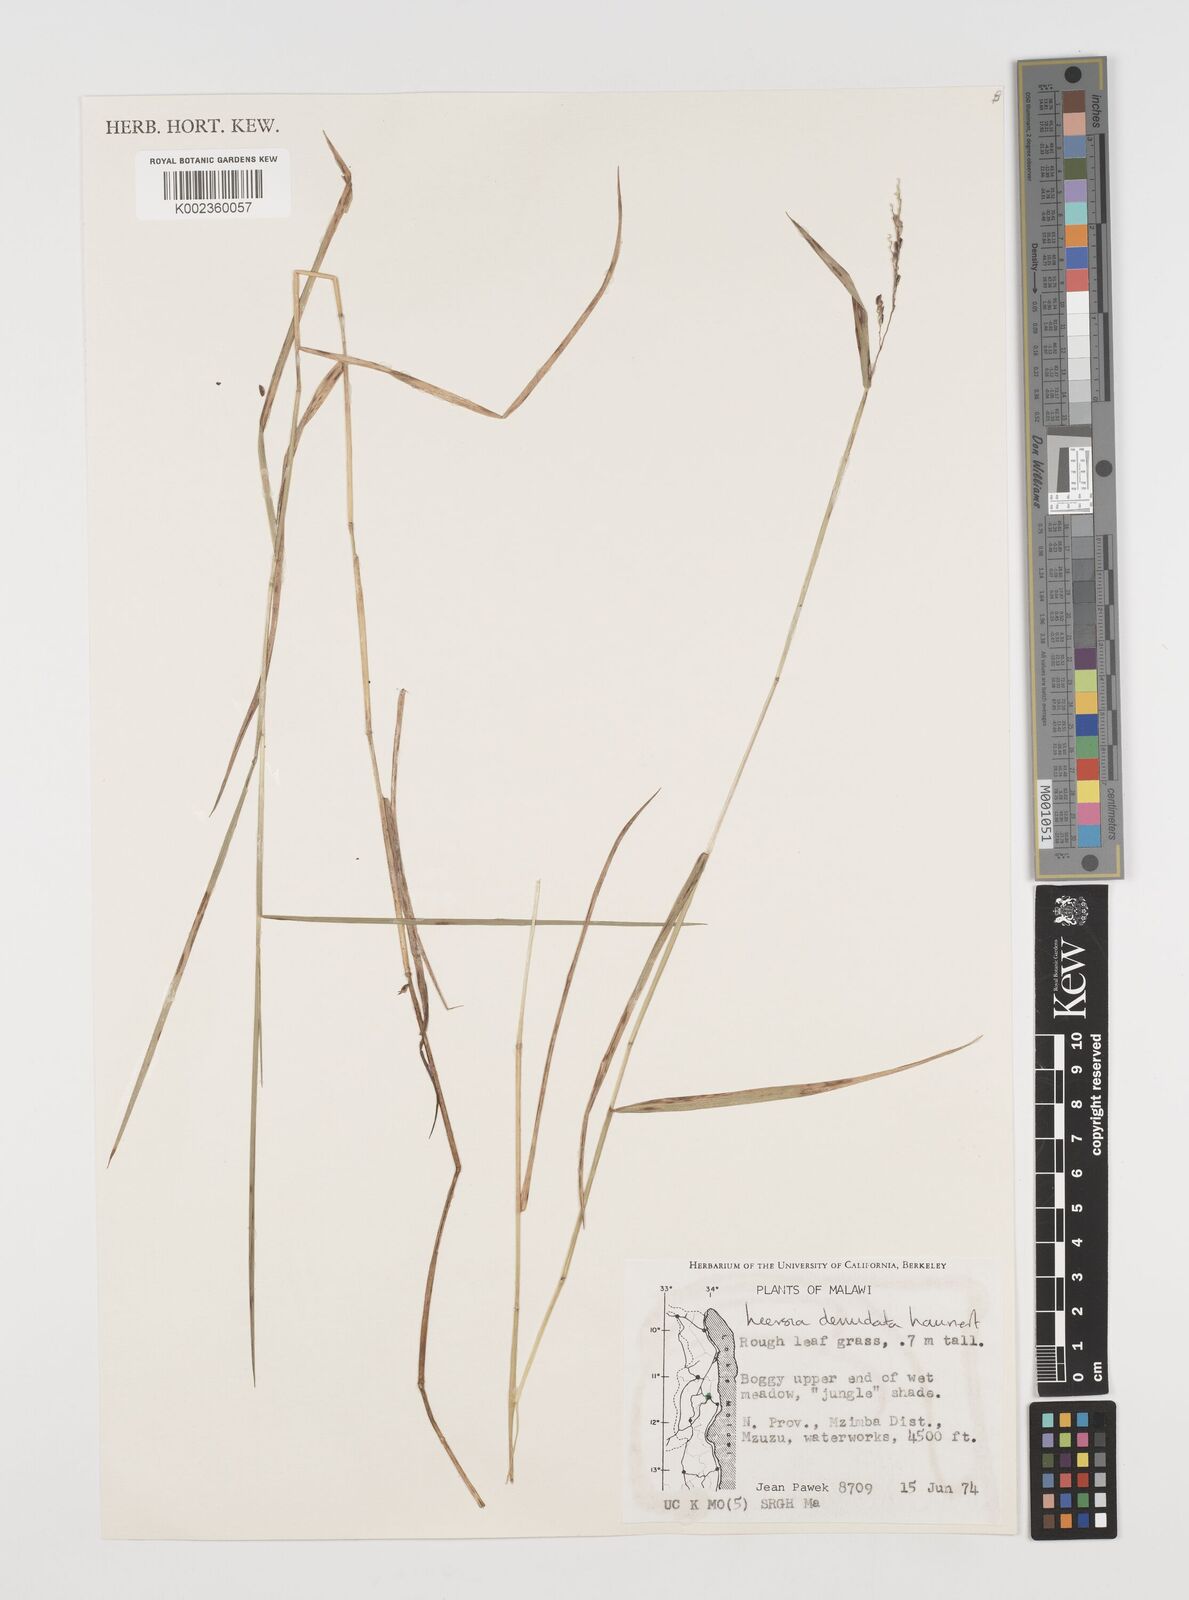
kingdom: Plantae
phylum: Tracheophyta
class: Liliopsida
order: Poales
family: Poaceae
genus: Leersia
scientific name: Leersia denudata
